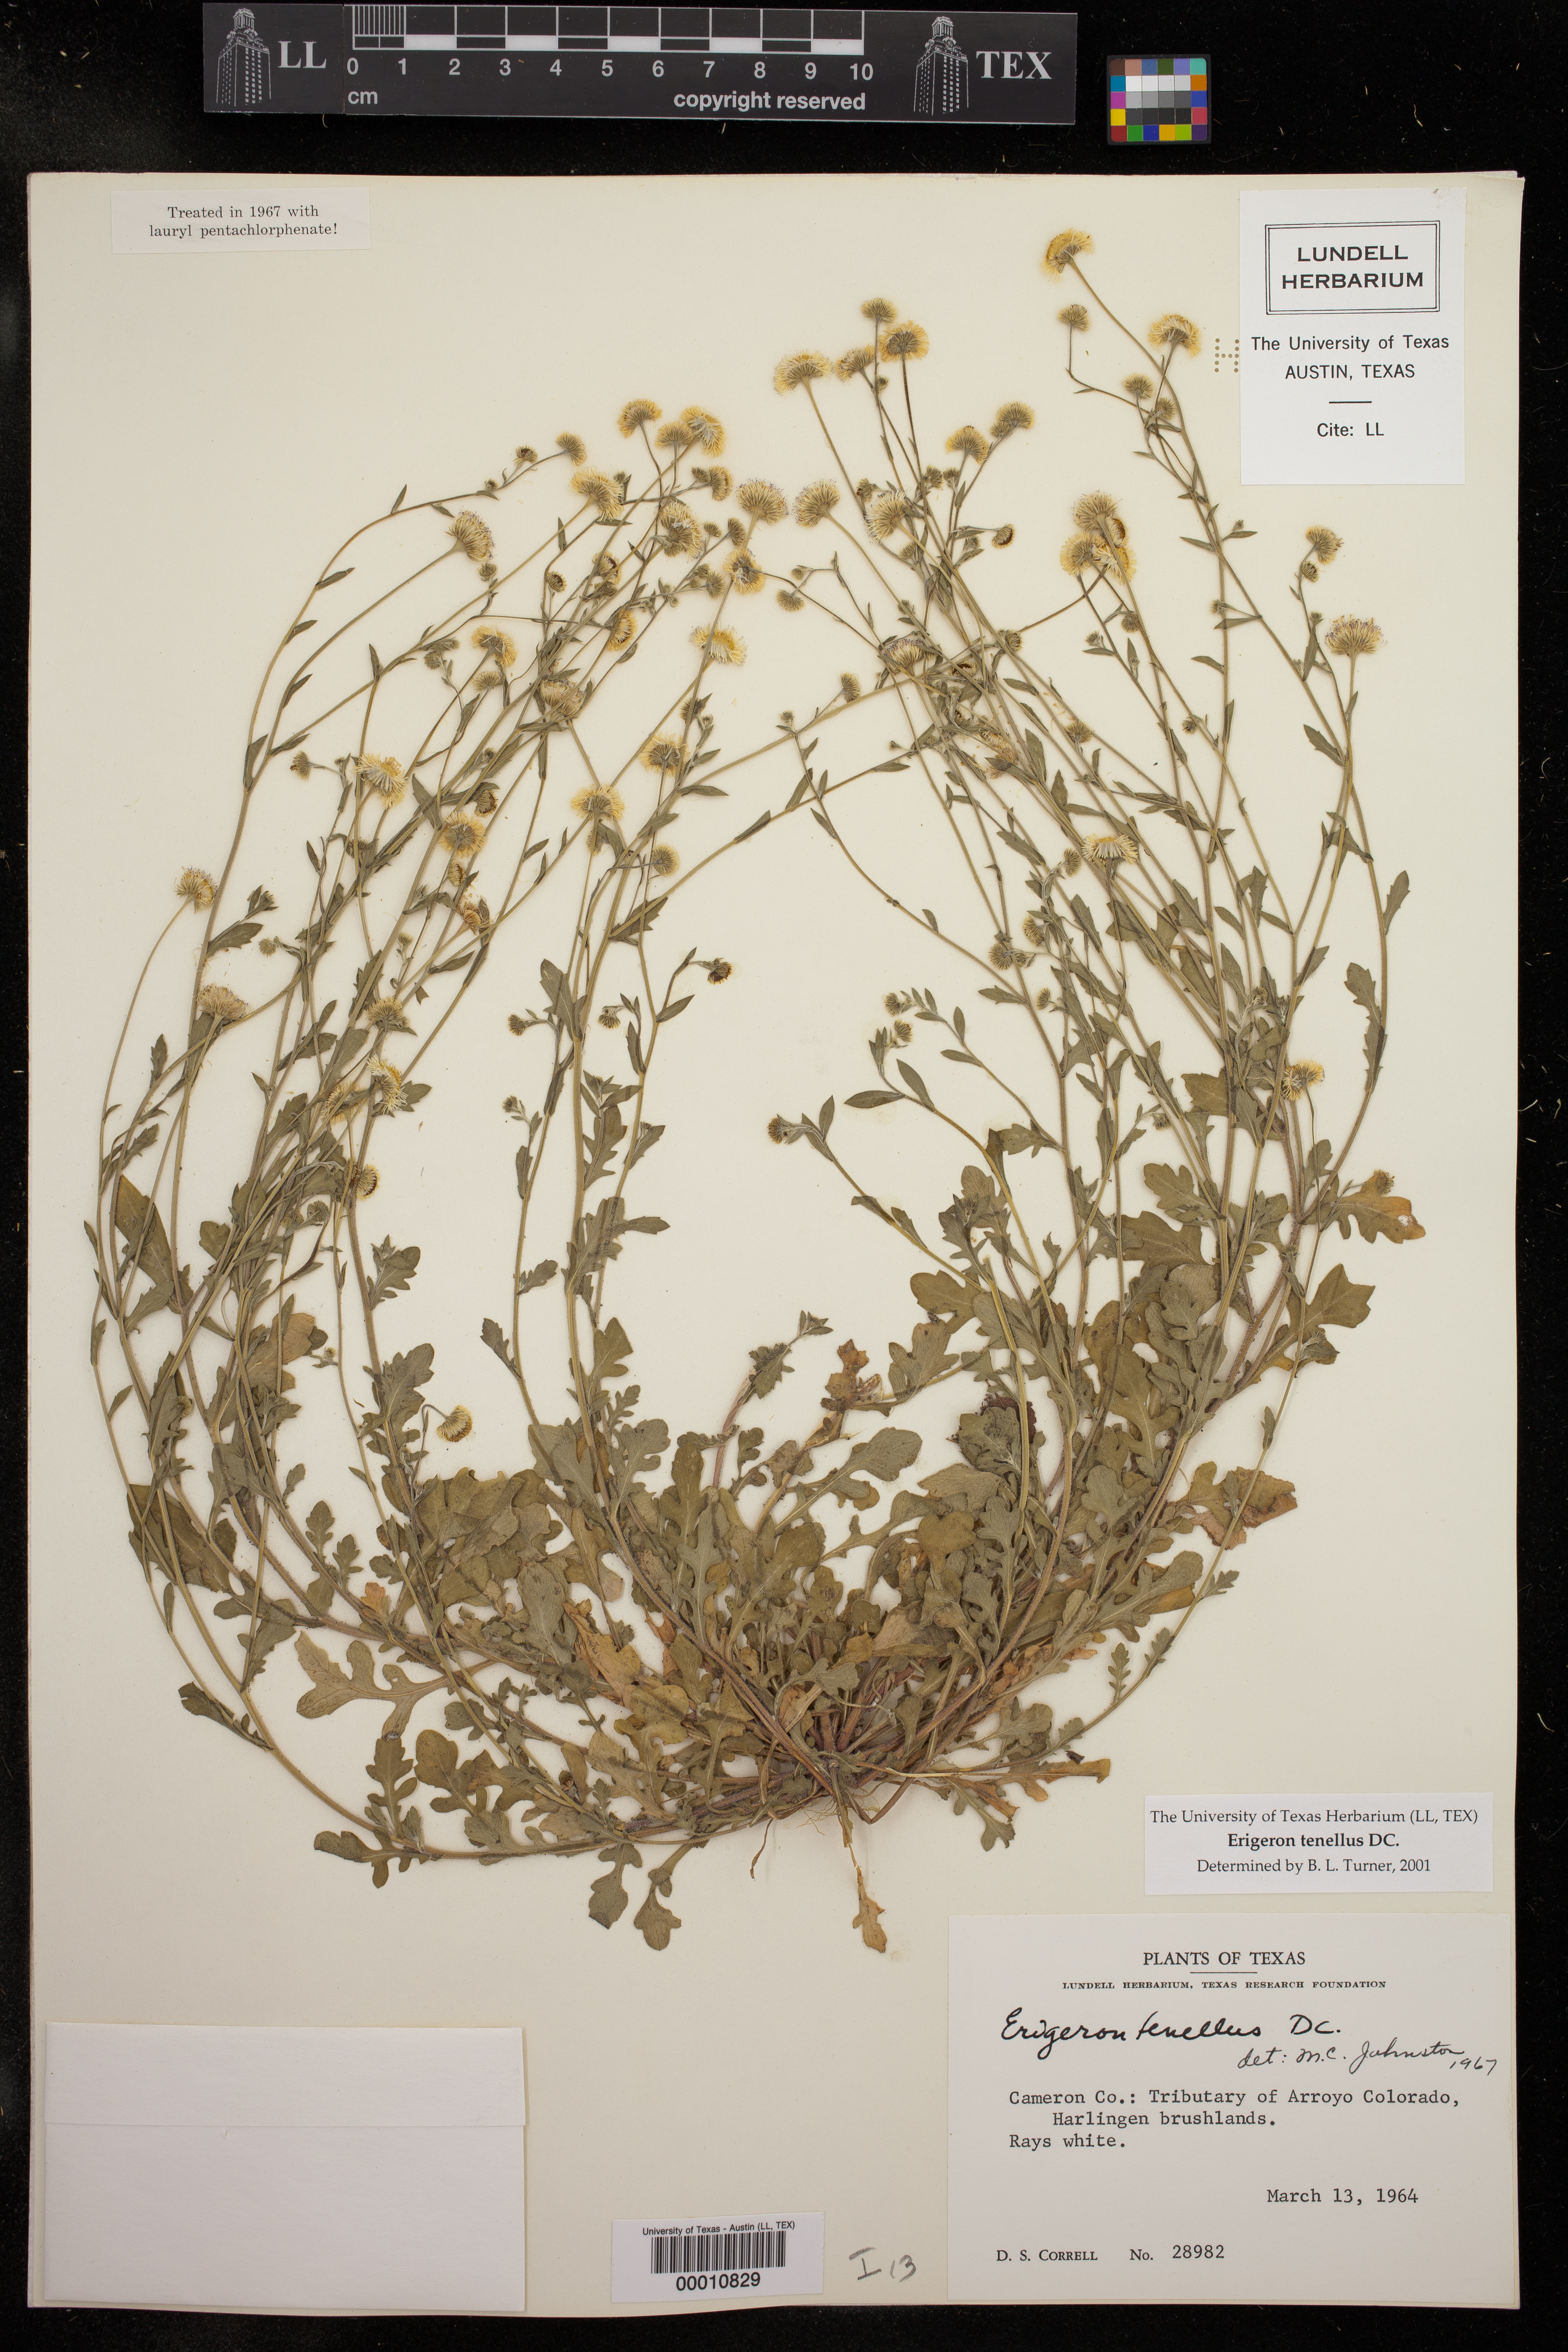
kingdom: Plantae
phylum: Tracheophyta
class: Magnoliopsida
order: Asterales
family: Asteraceae
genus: Erigeron
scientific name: Erigeron tenellus
